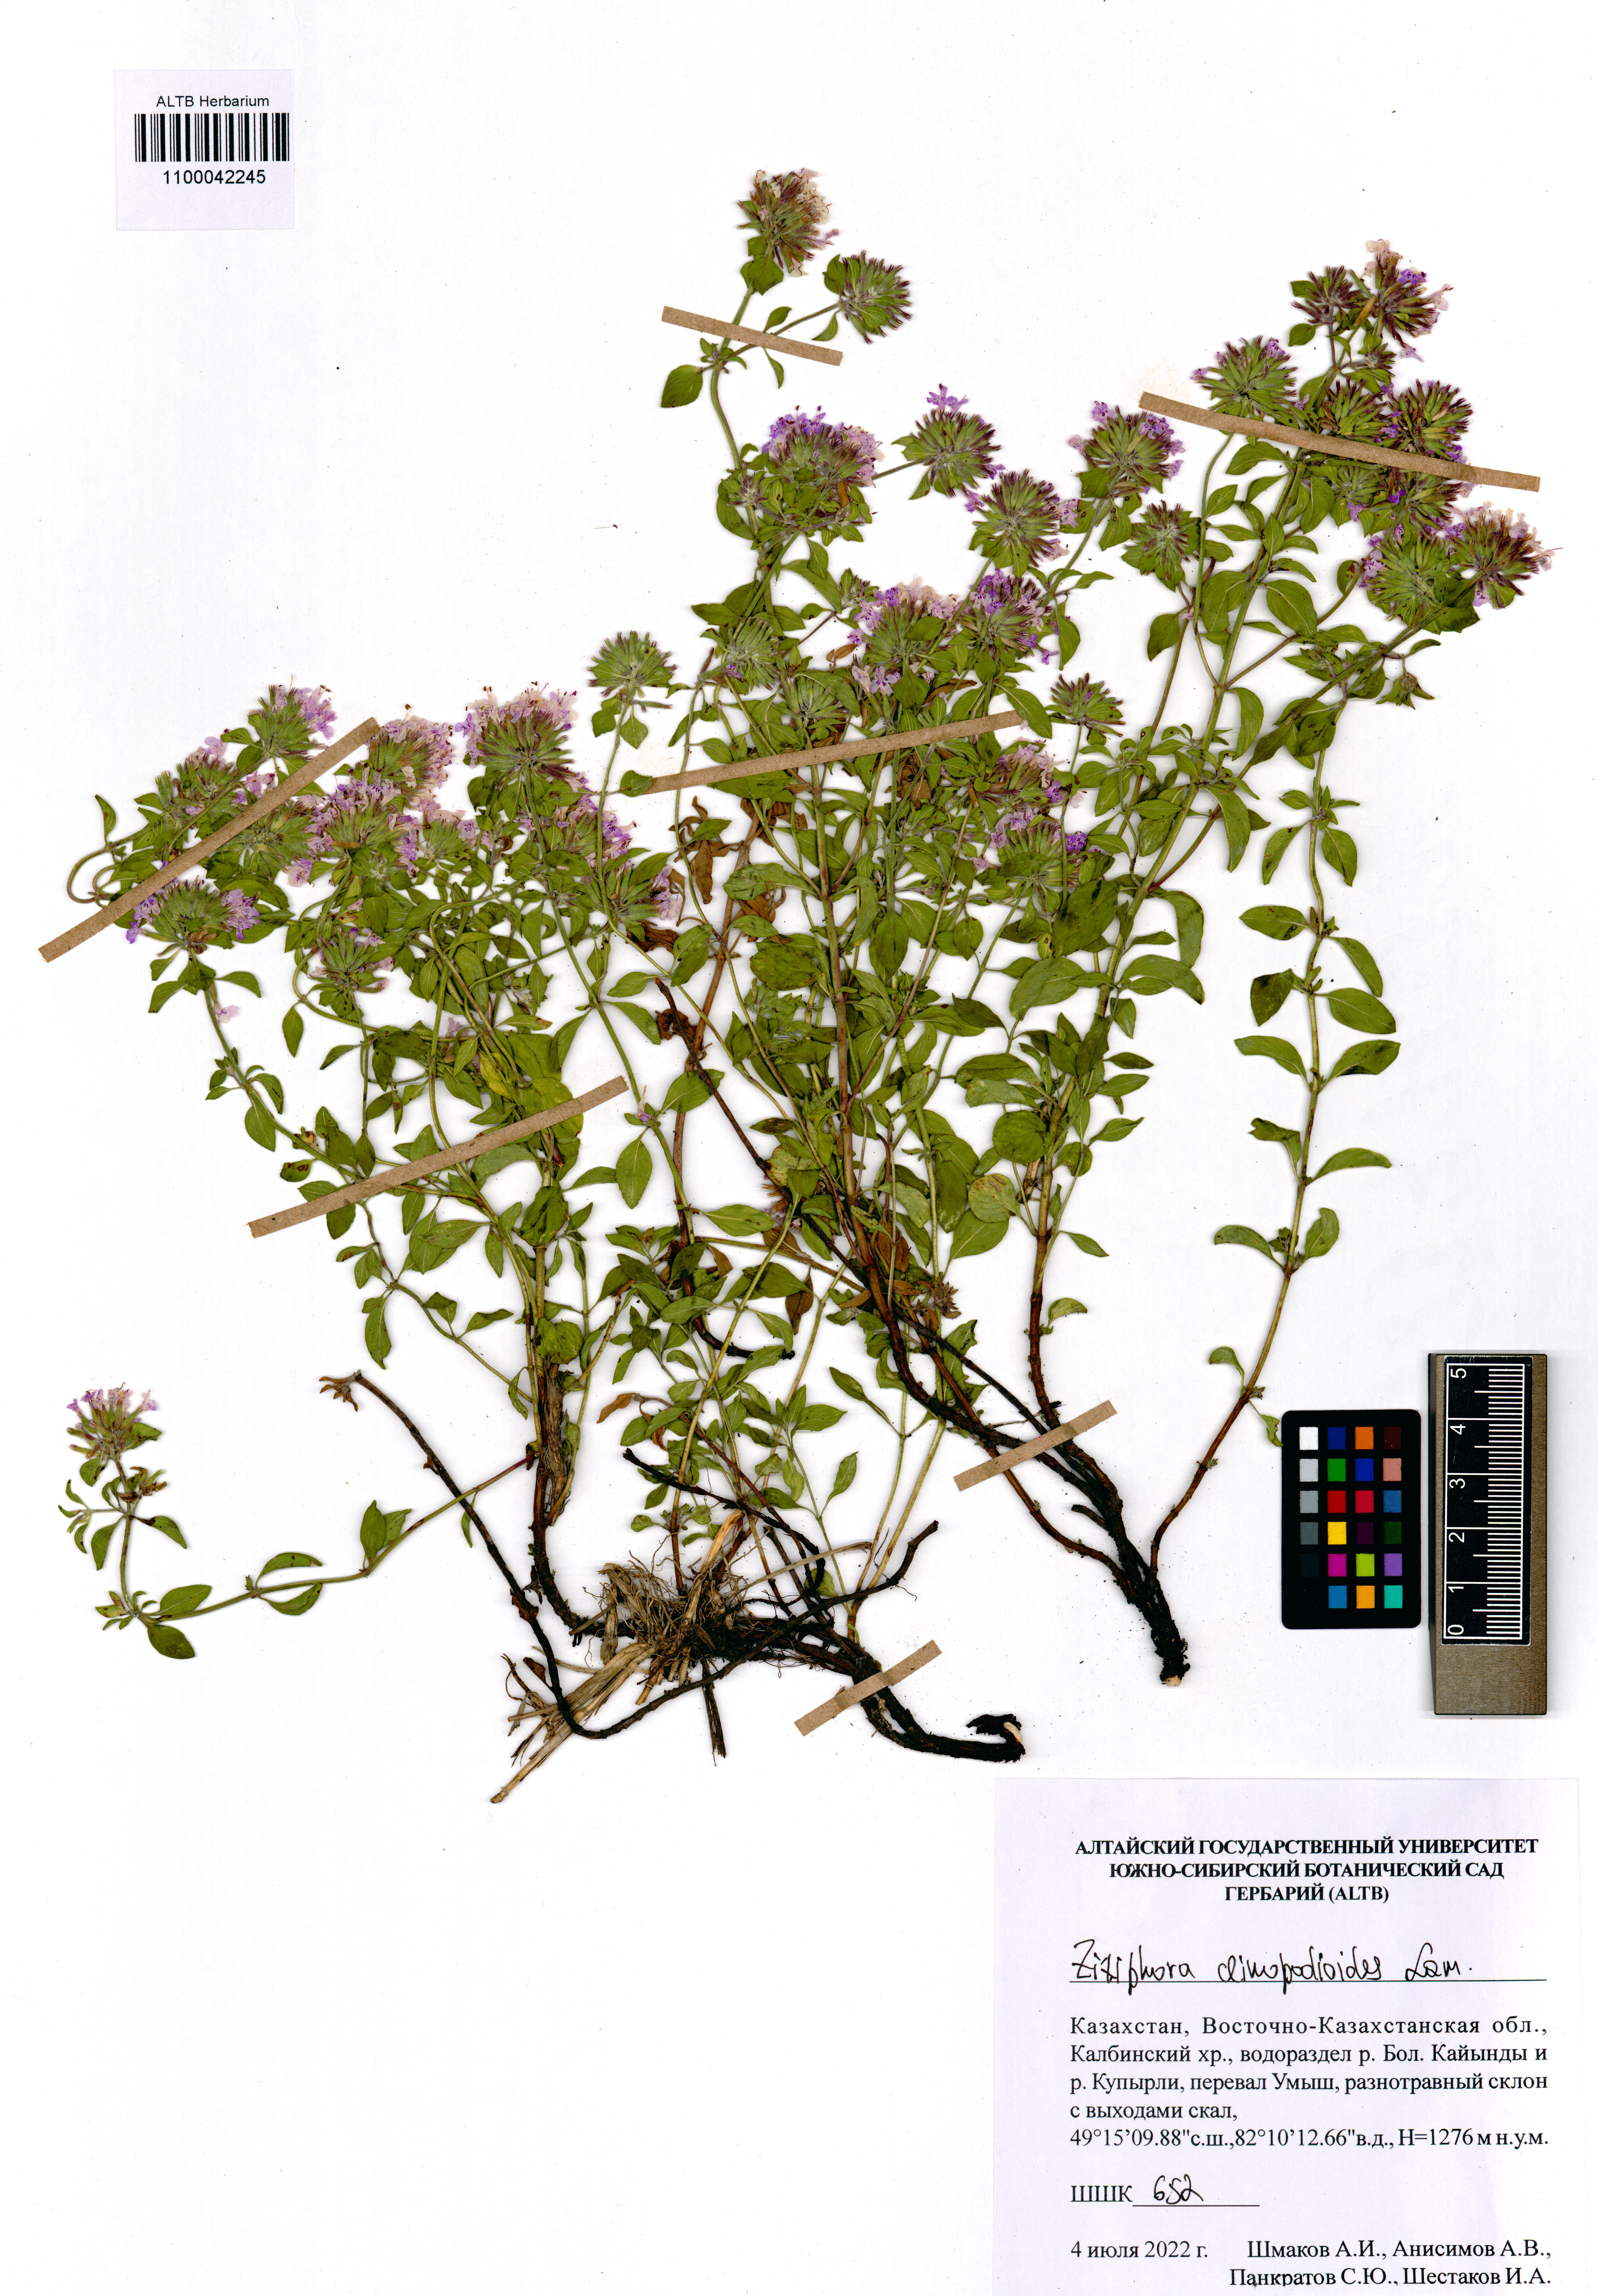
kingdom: Plantae
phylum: Tracheophyta
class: Magnoliopsida
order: Lamiales
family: Lamiaceae
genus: Ziziphora
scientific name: Ziziphora clinopodioides
